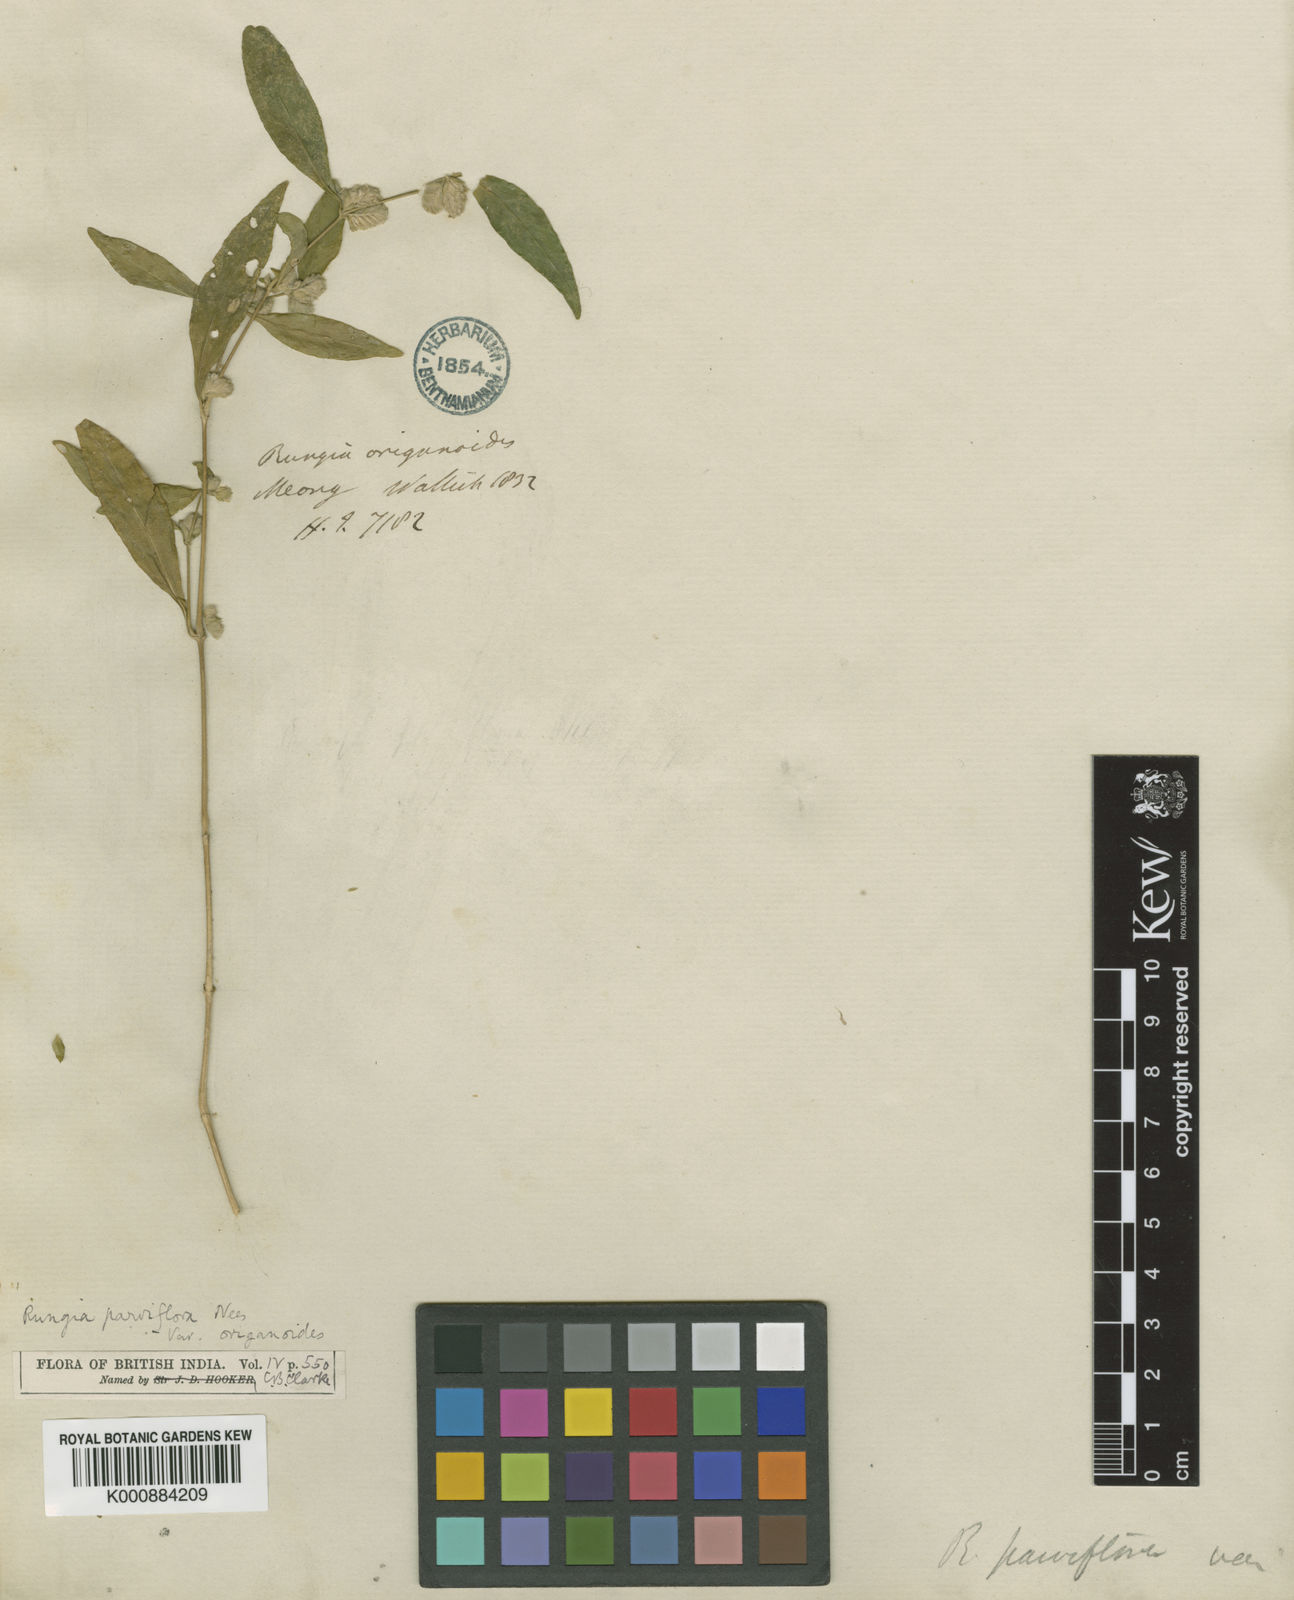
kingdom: Plantae
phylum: Tracheophyta
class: Magnoliopsida
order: Lamiales
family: Acanthaceae
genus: Justicia
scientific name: Justicia
